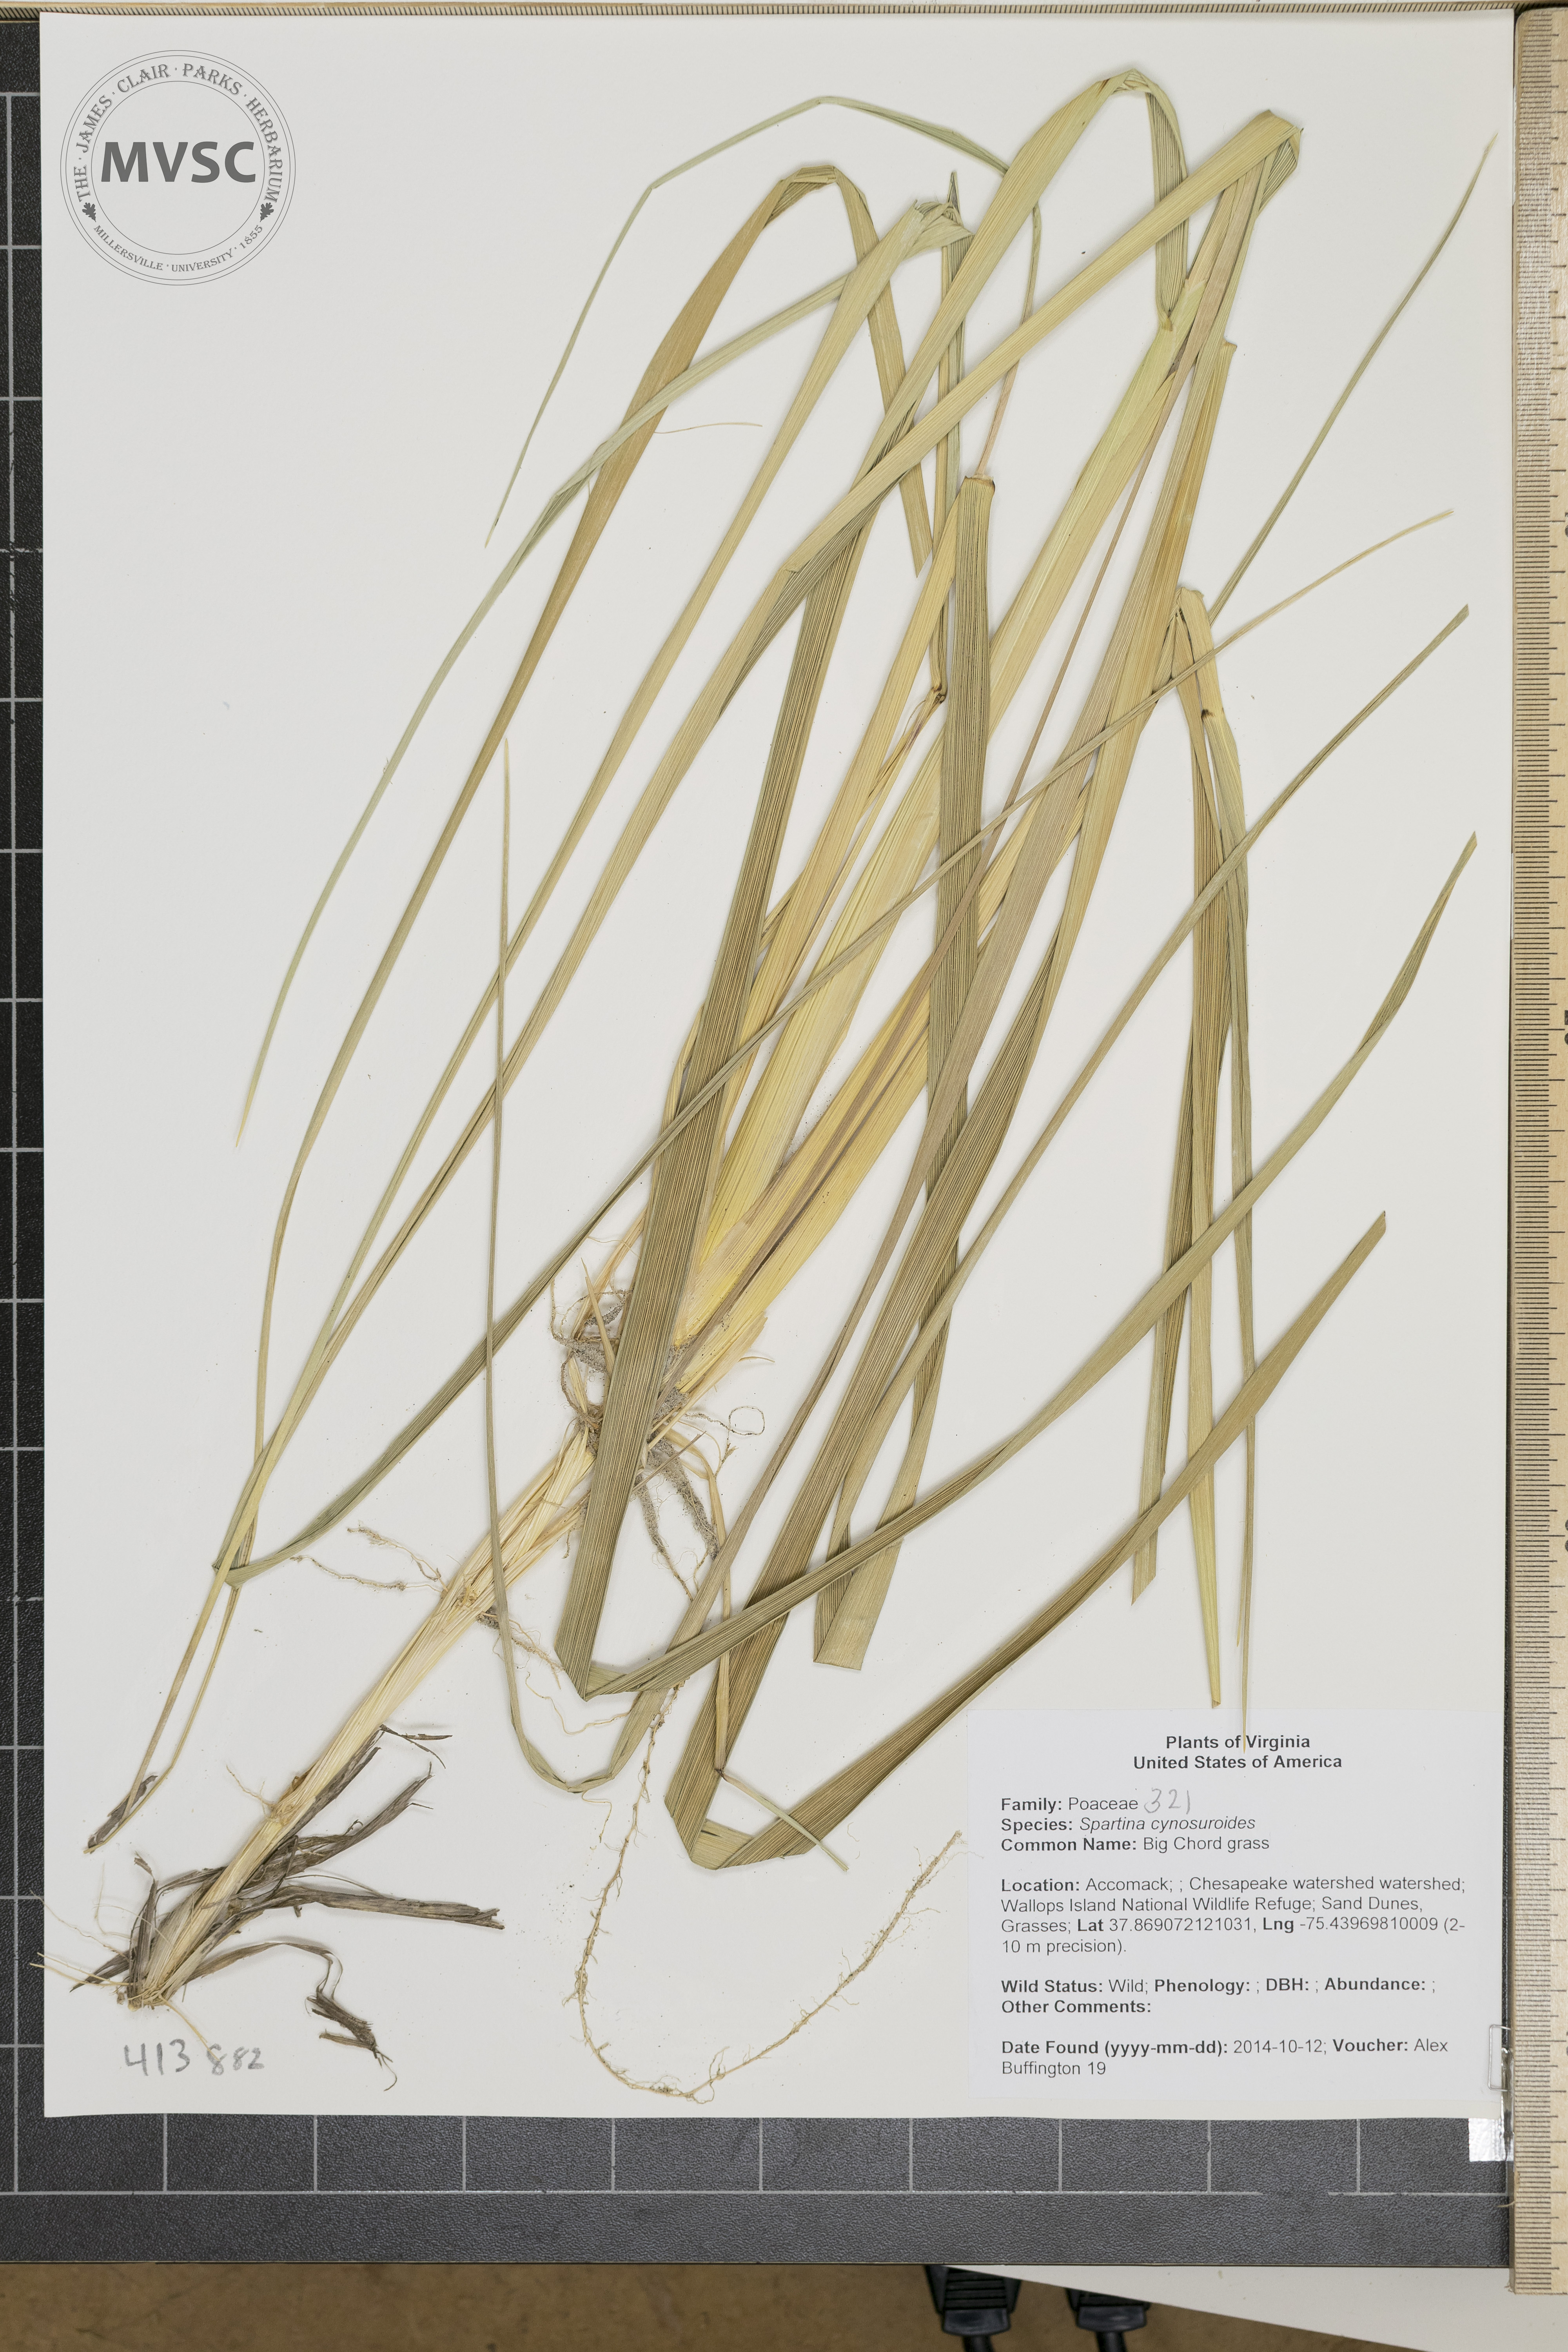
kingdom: Plantae
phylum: Tracheophyta
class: Liliopsida
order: Poales
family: Poaceae
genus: Sporobolus
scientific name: Sporobolus cynosuroides
